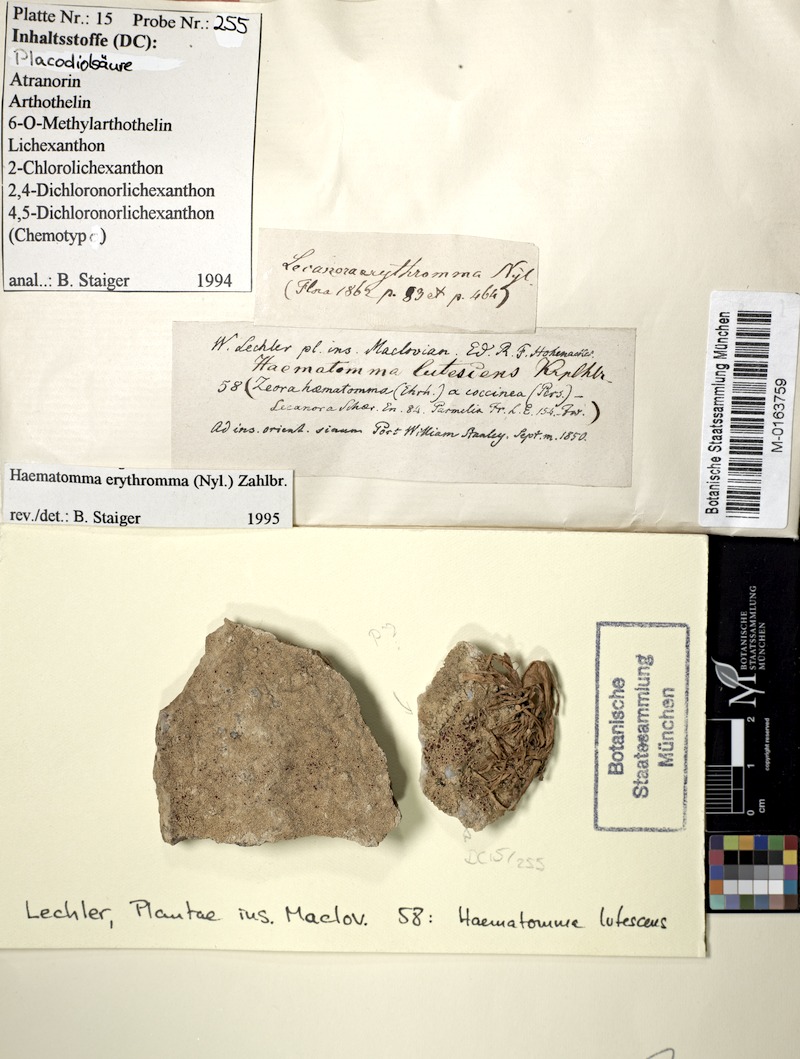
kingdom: Fungi
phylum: Ascomycota
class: Lecanoromycetes
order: Lecanorales
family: Haematommataceae
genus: Haematomma
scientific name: Haematomma erythromma
